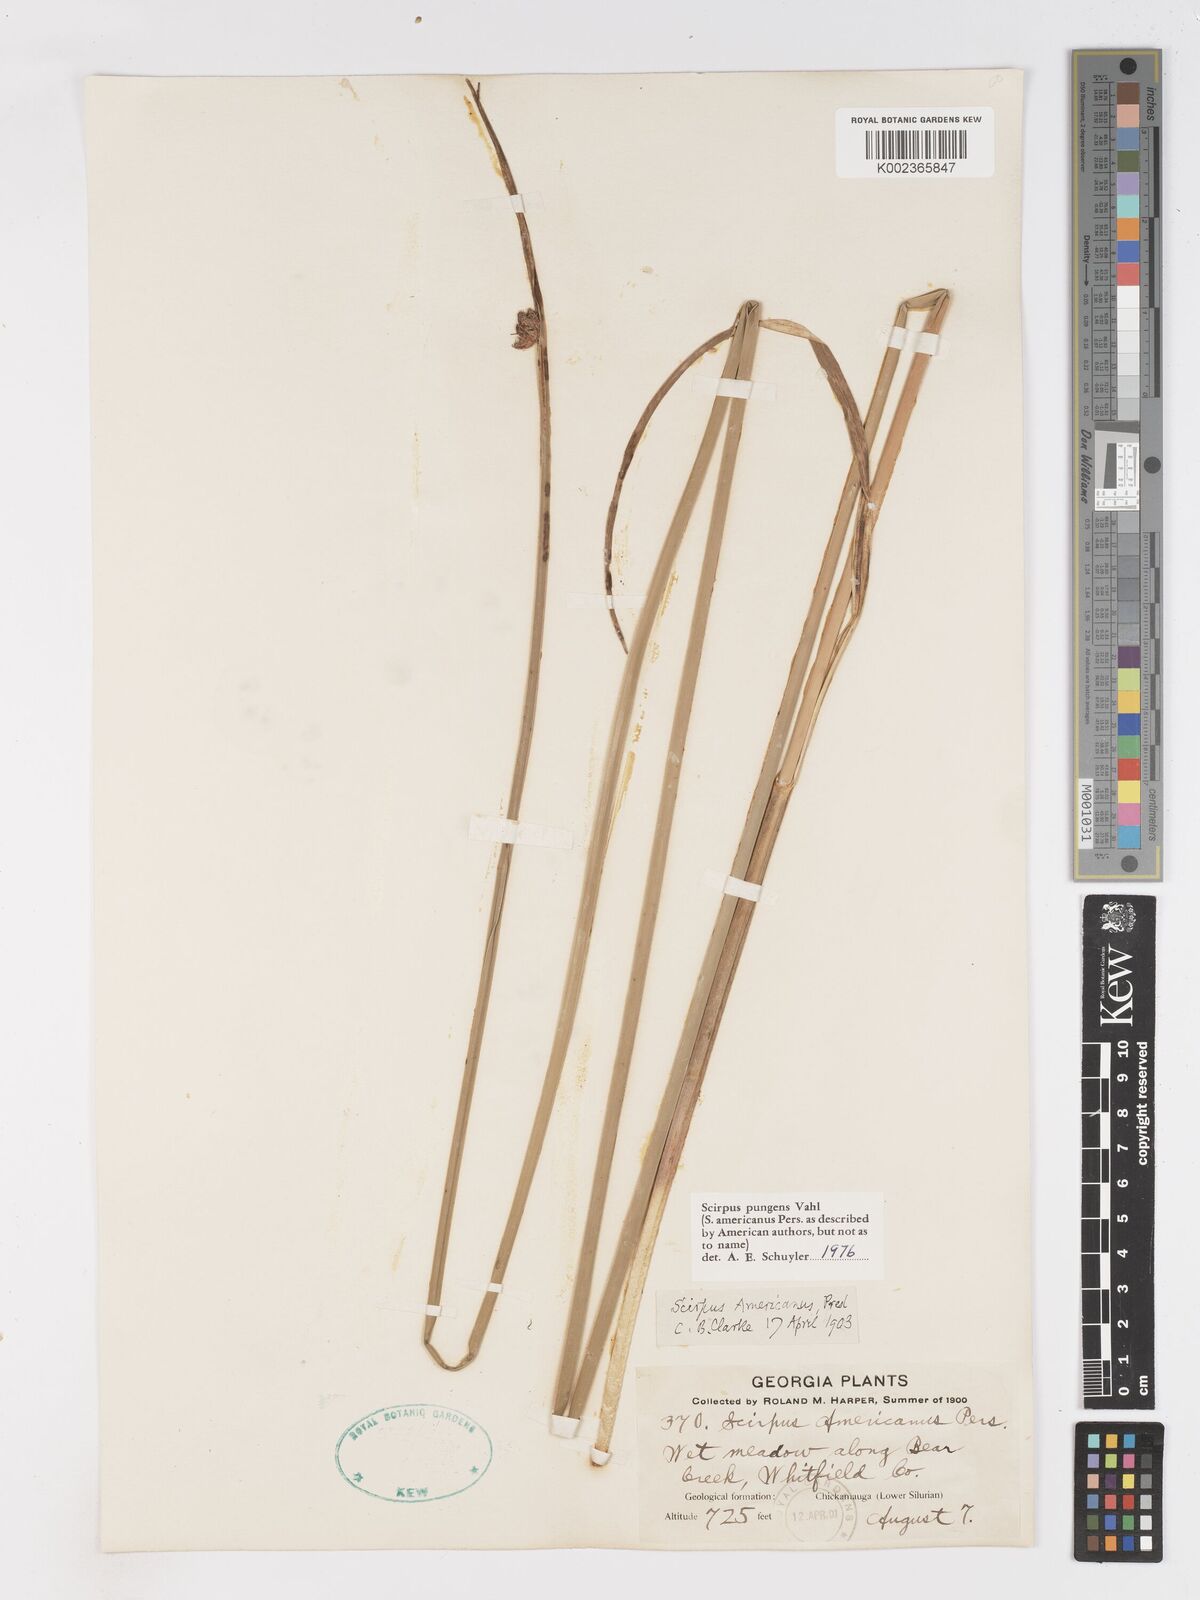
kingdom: Plantae
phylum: Tracheophyta
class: Liliopsida
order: Poales
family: Cyperaceae
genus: Schoenoplectus
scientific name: Schoenoplectus pungens
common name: Sharp club-rush
